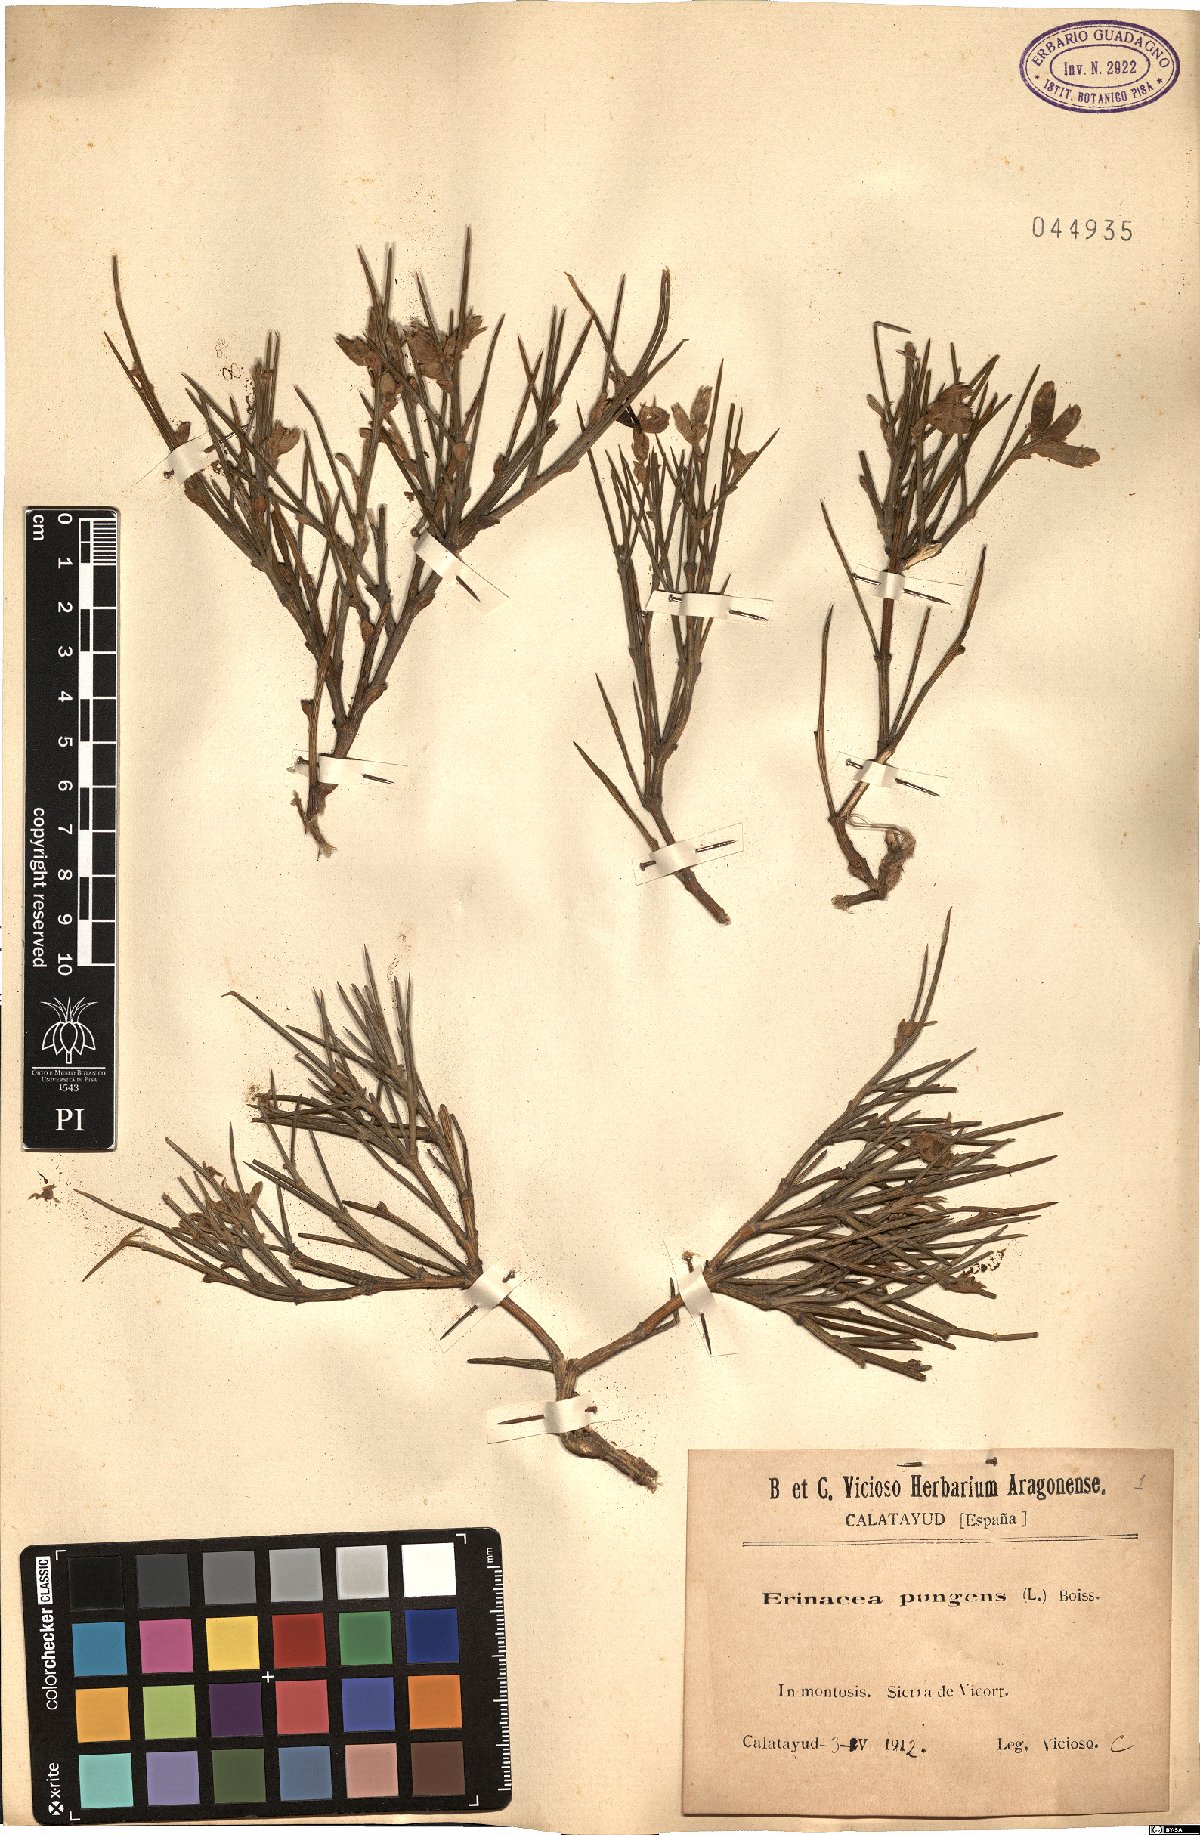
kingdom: Plantae
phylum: Tracheophyta
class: Magnoliopsida
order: Fabales
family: Fabaceae
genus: Erinacea
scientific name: Erinacea anthyllis
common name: Hedgehog-broom
